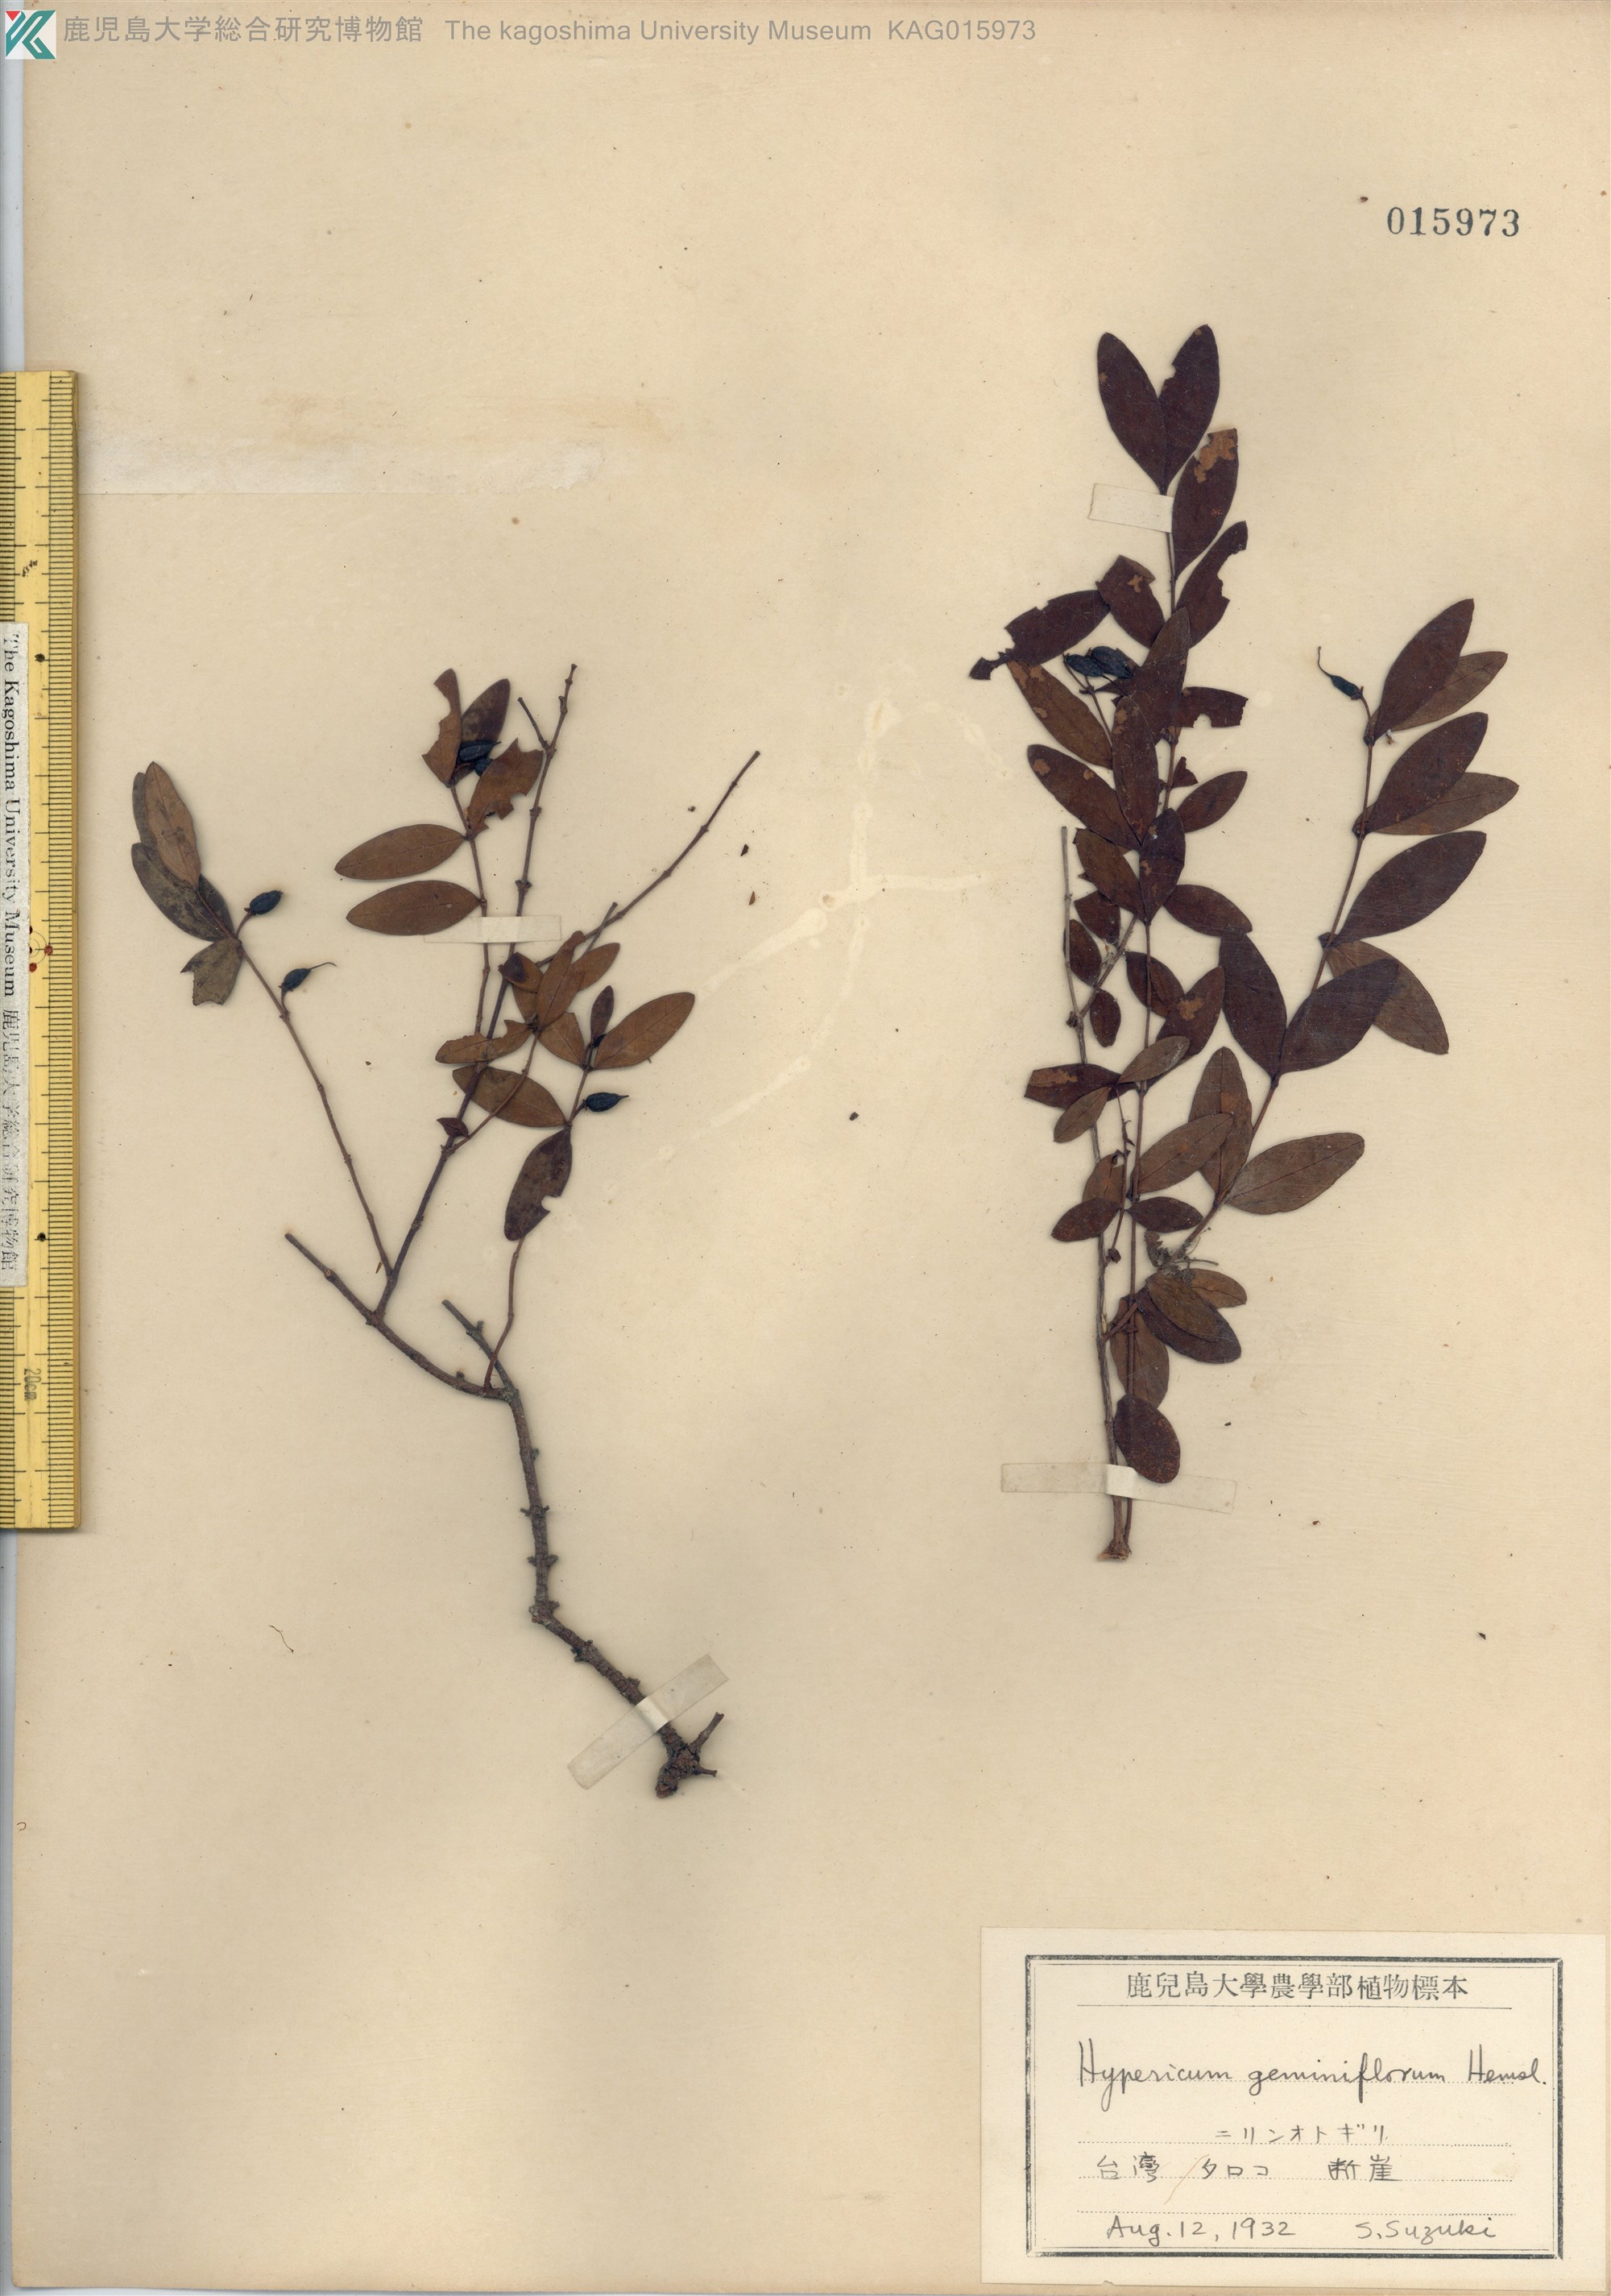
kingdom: Plantae
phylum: Tracheophyta
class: Magnoliopsida
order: Malpighiales
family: Hypericaceae
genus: Hypericum
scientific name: Hypericum geminiflorum
